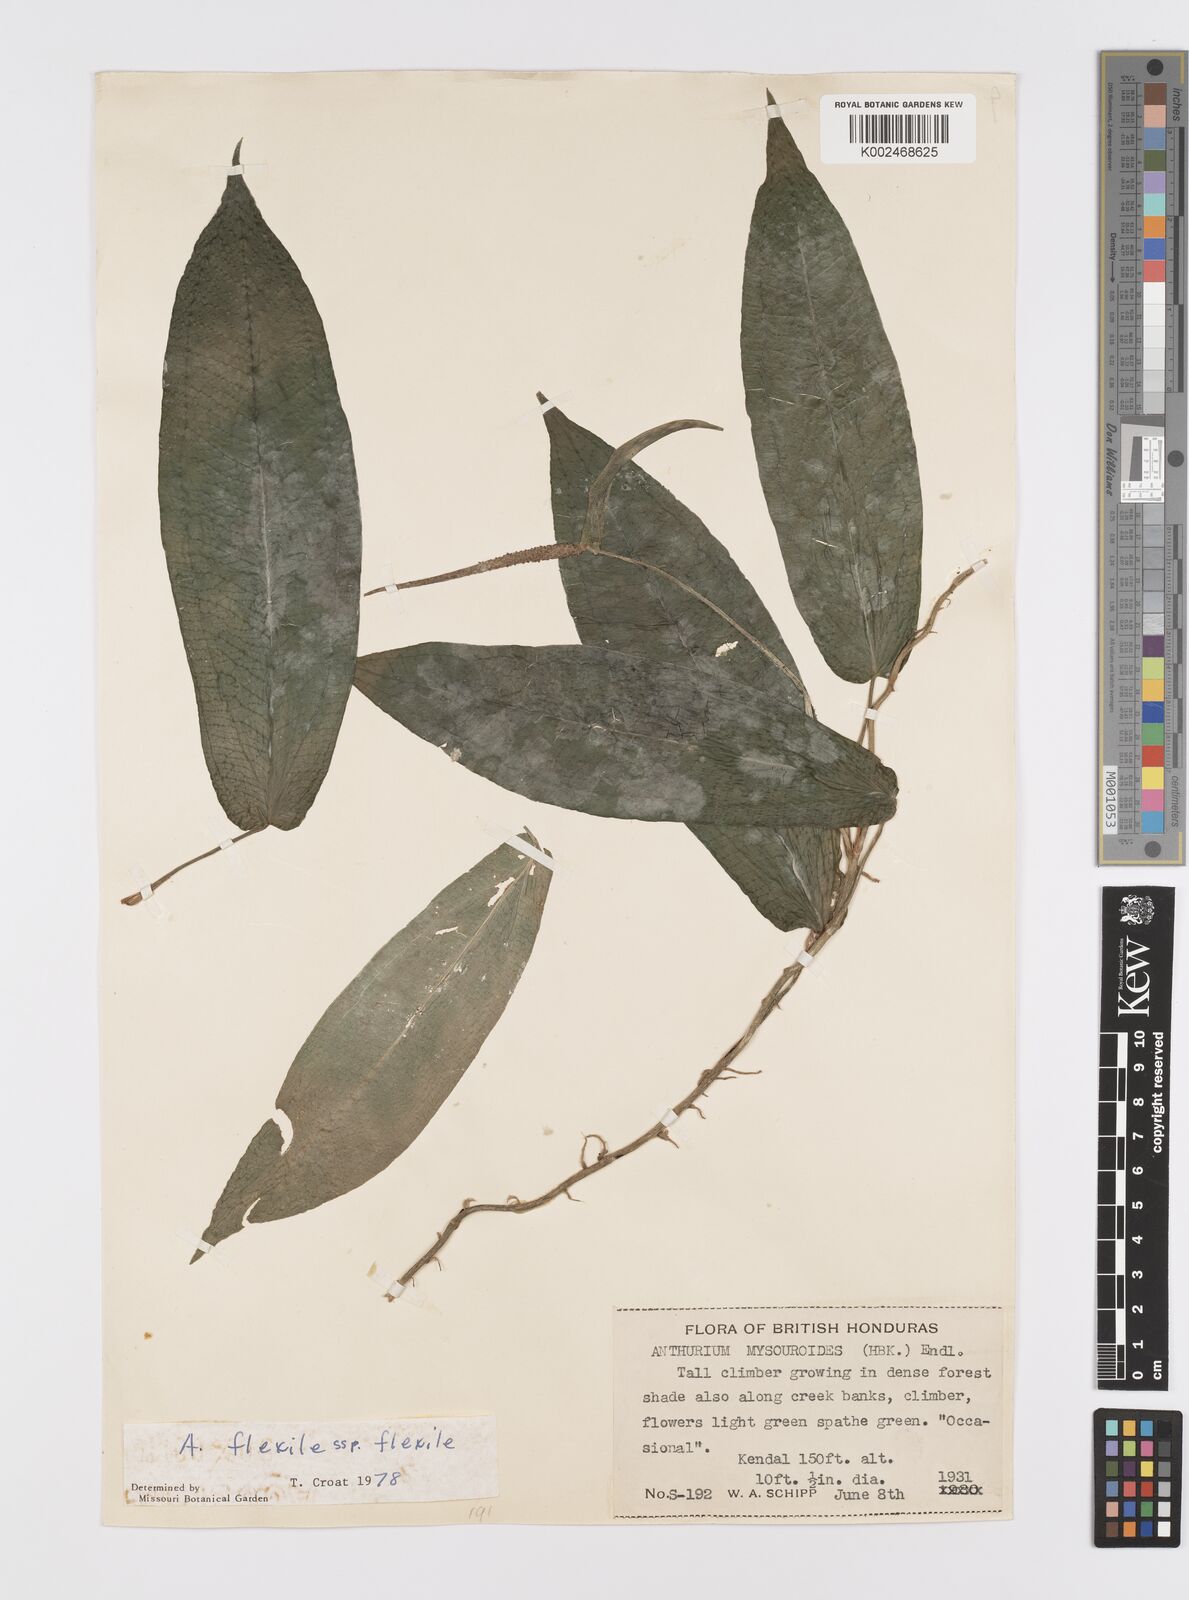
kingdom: Plantae
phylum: Tracheophyta
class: Liliopsida
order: Alismatales
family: Araceae
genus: Anthurium
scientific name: Anthurium flexile
